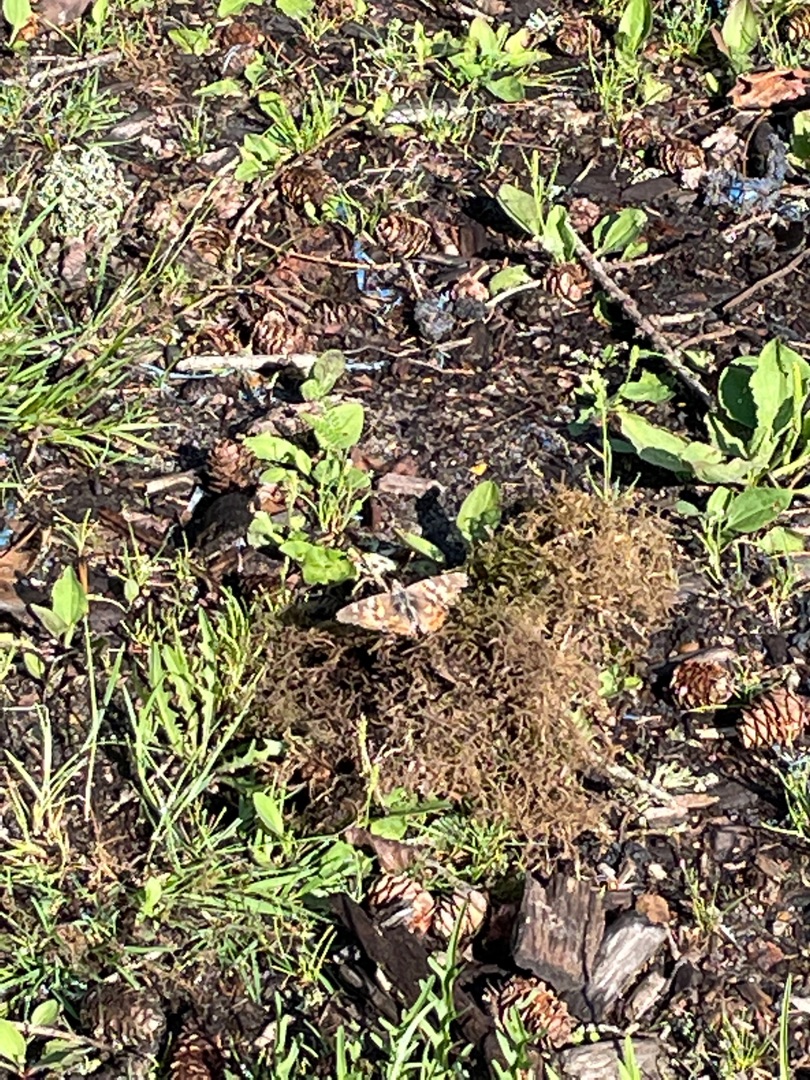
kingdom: Animalia
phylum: Arthropoda
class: Insecta
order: Lepidoptera
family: Nymphalidae
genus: Vanessa
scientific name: Vanessa cardui
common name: Tidselsommerfugl
